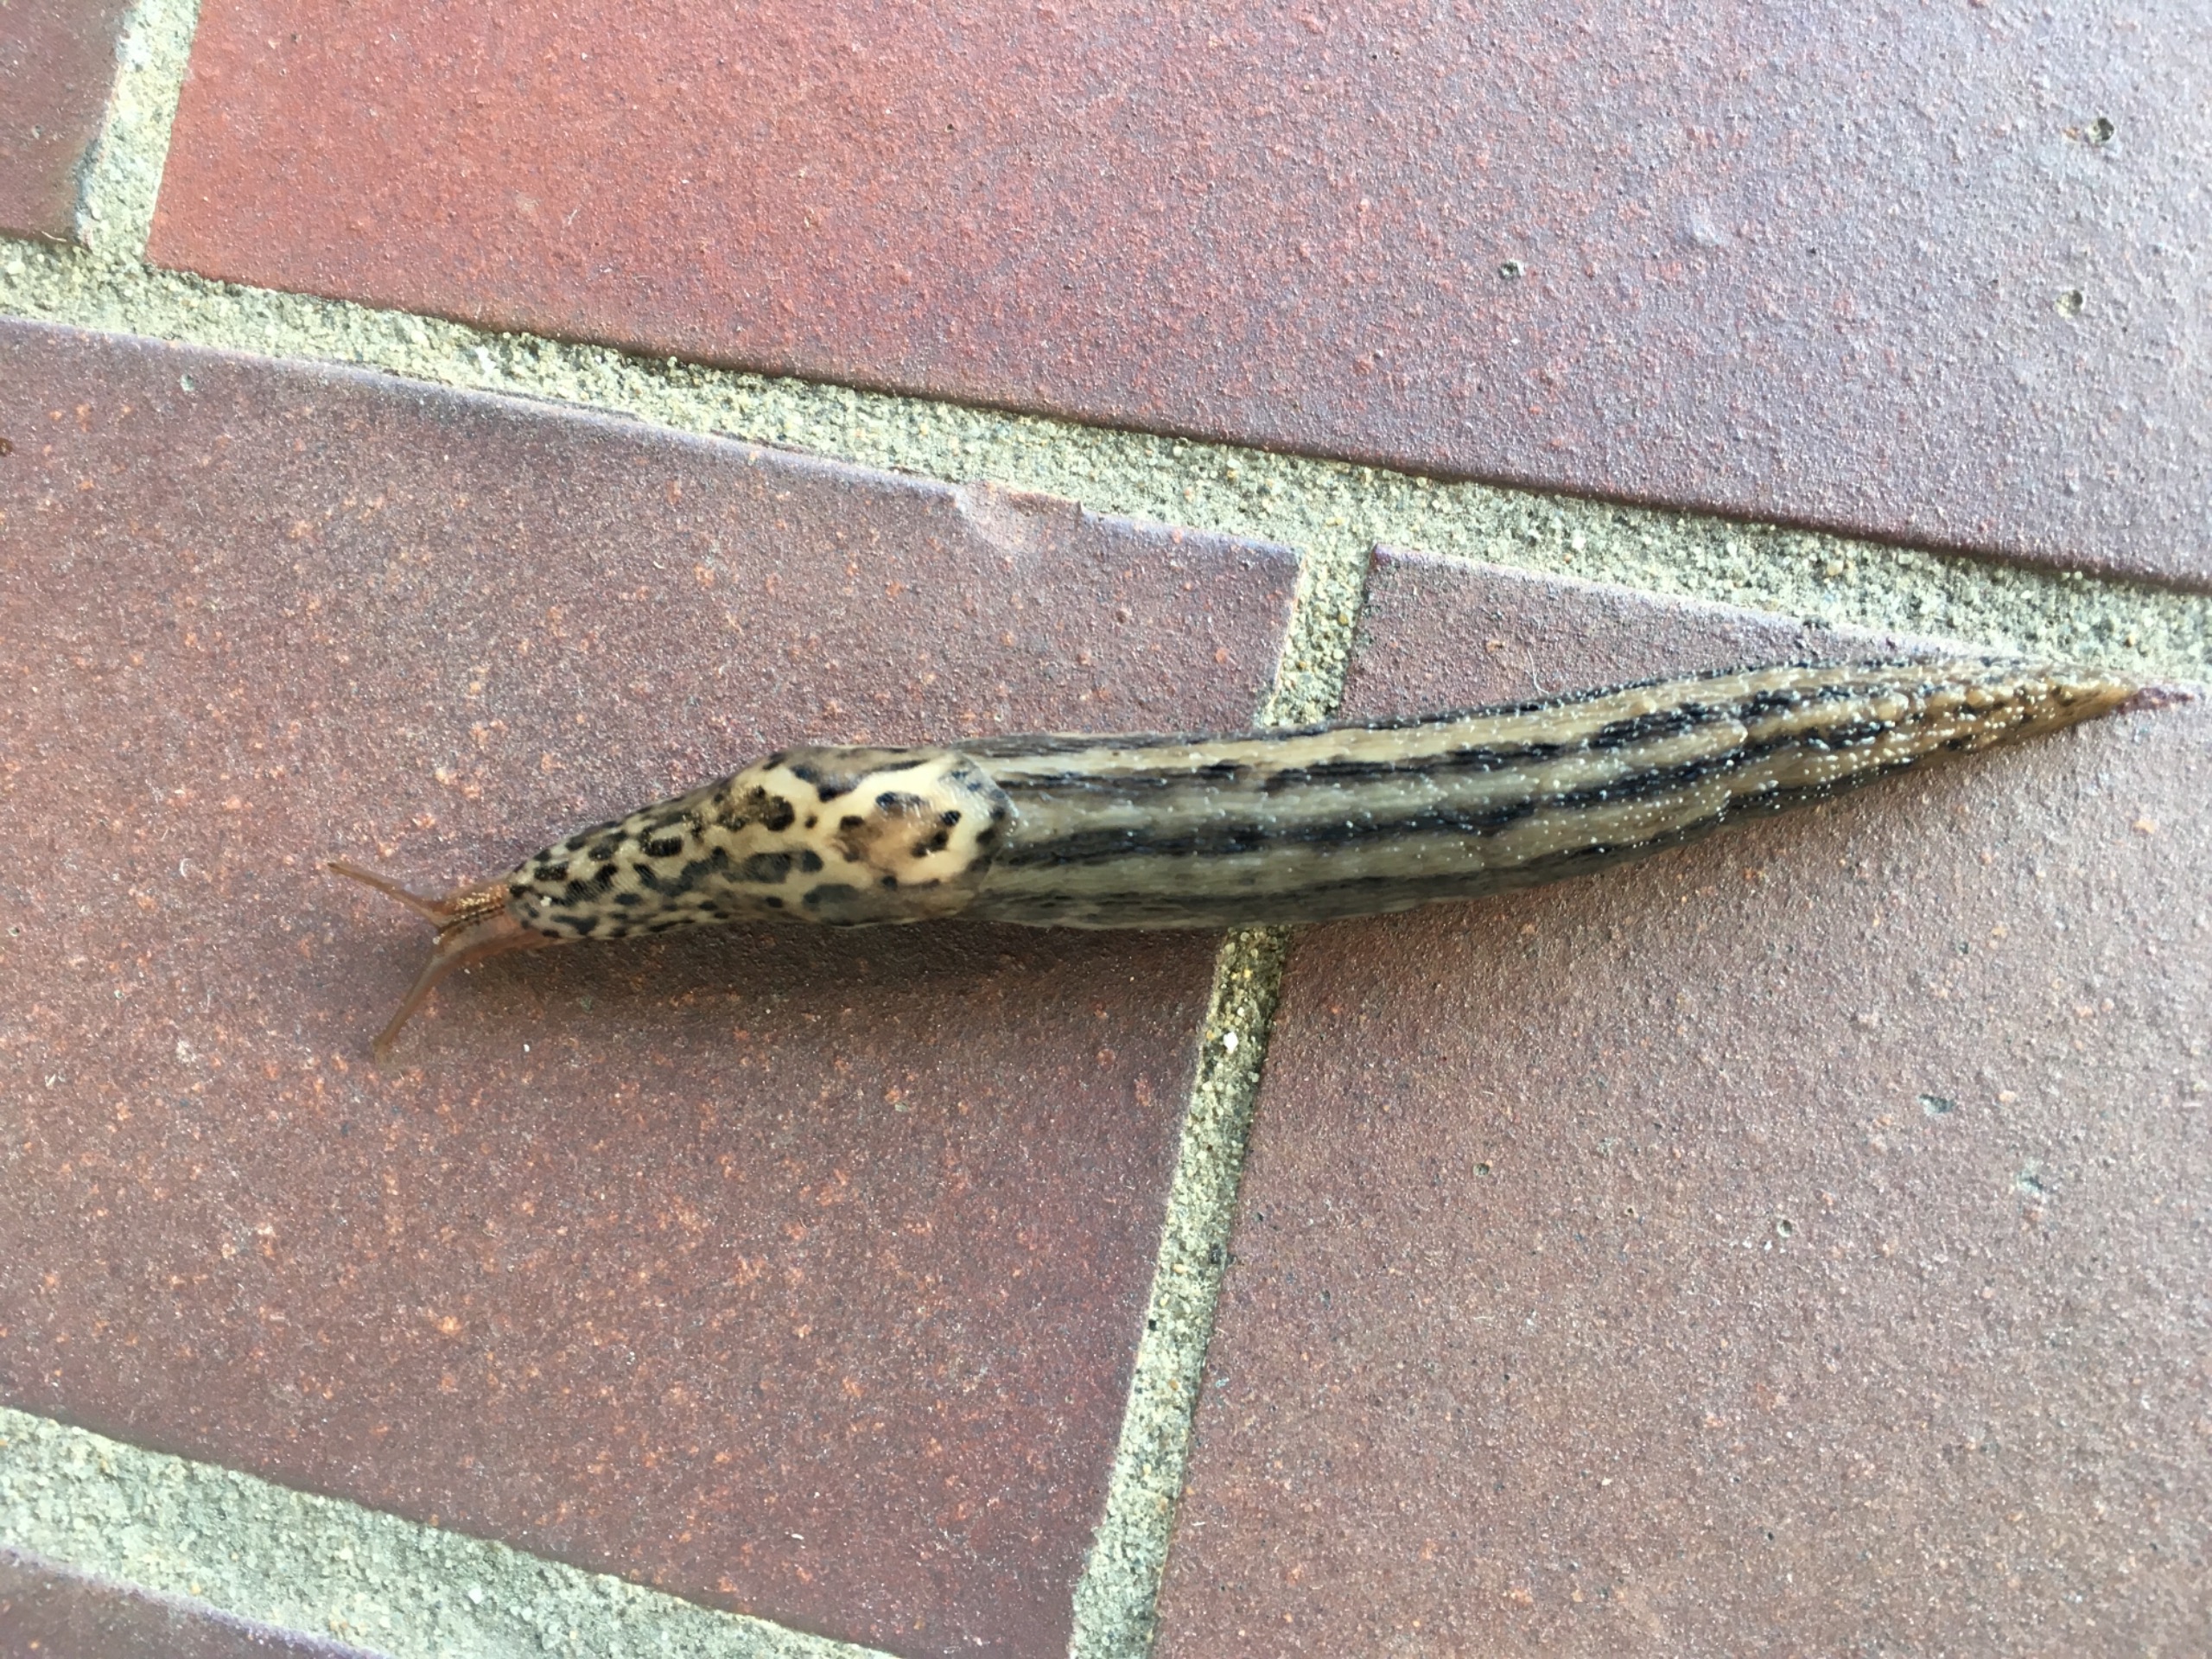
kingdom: Animalia
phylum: Mollusca
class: Gastropoda
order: Stylommatophora
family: Limacidae
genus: Limax
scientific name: Limax maximus
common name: Pantersnegl
